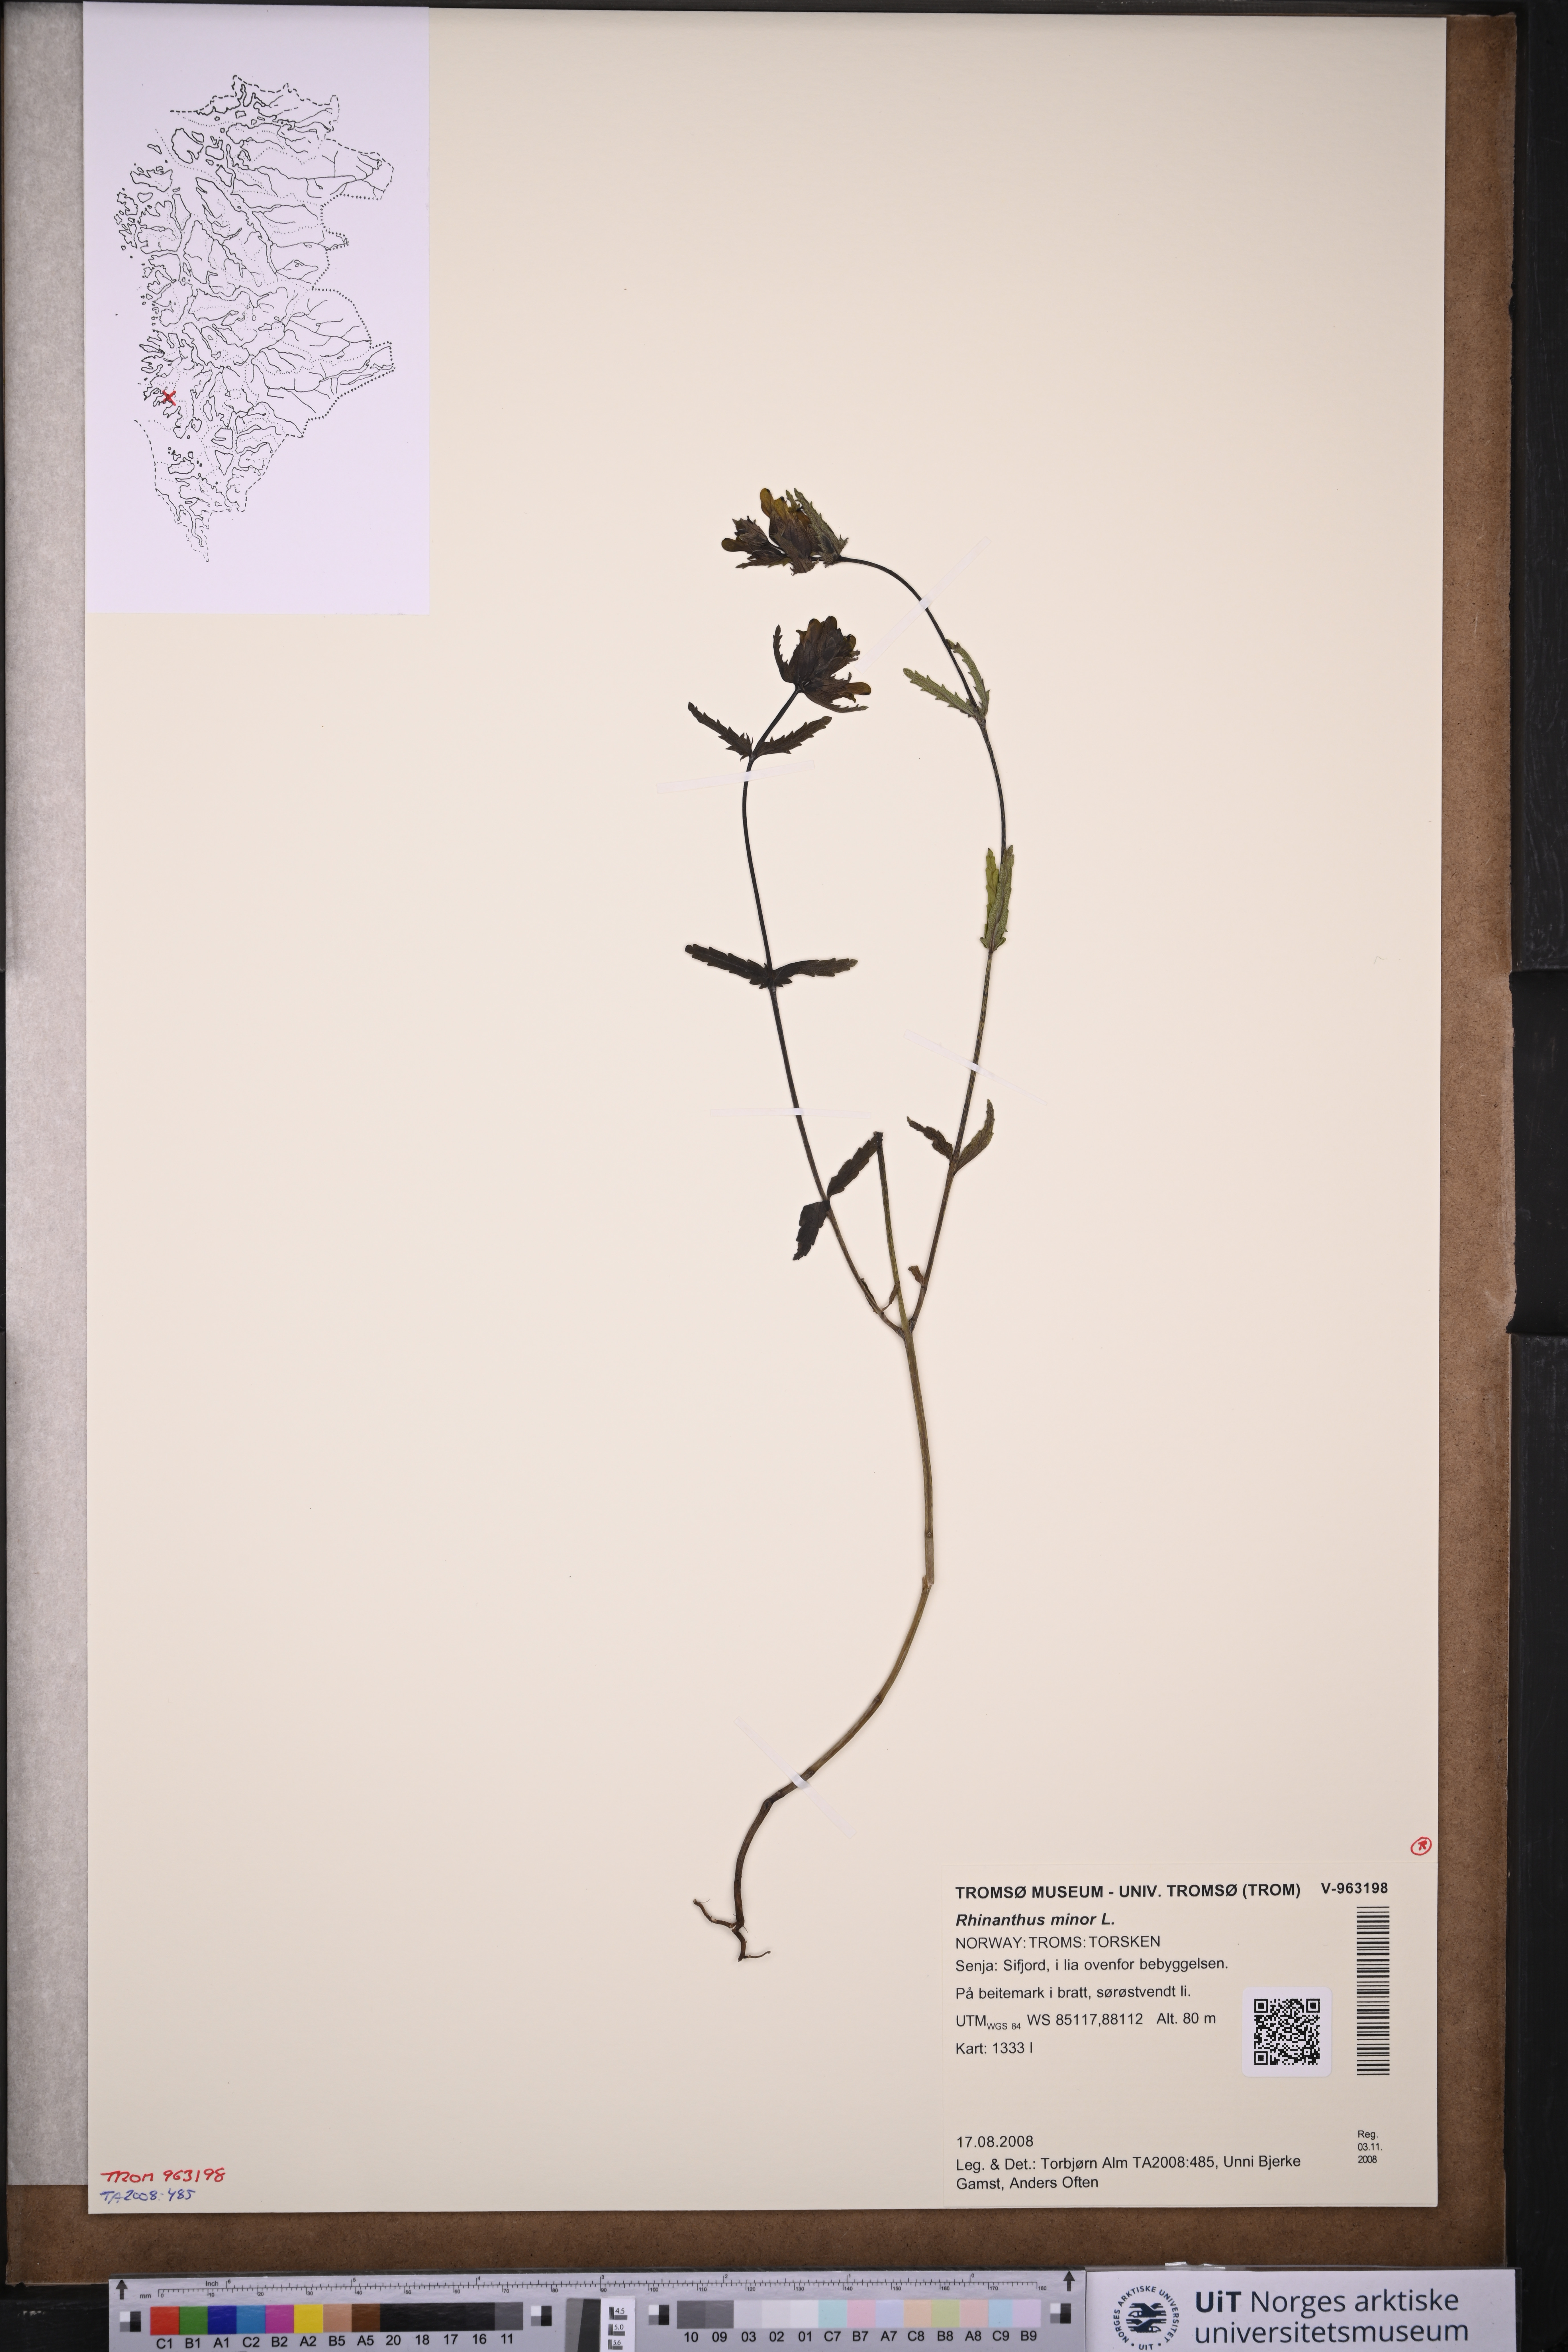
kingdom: Plantae
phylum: Tracheophyta
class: Magnoliopsida
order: Lamiales
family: Orobanchaceae
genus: Rhinanthus
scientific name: Rhinanthus minor
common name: Yellow-rattle
